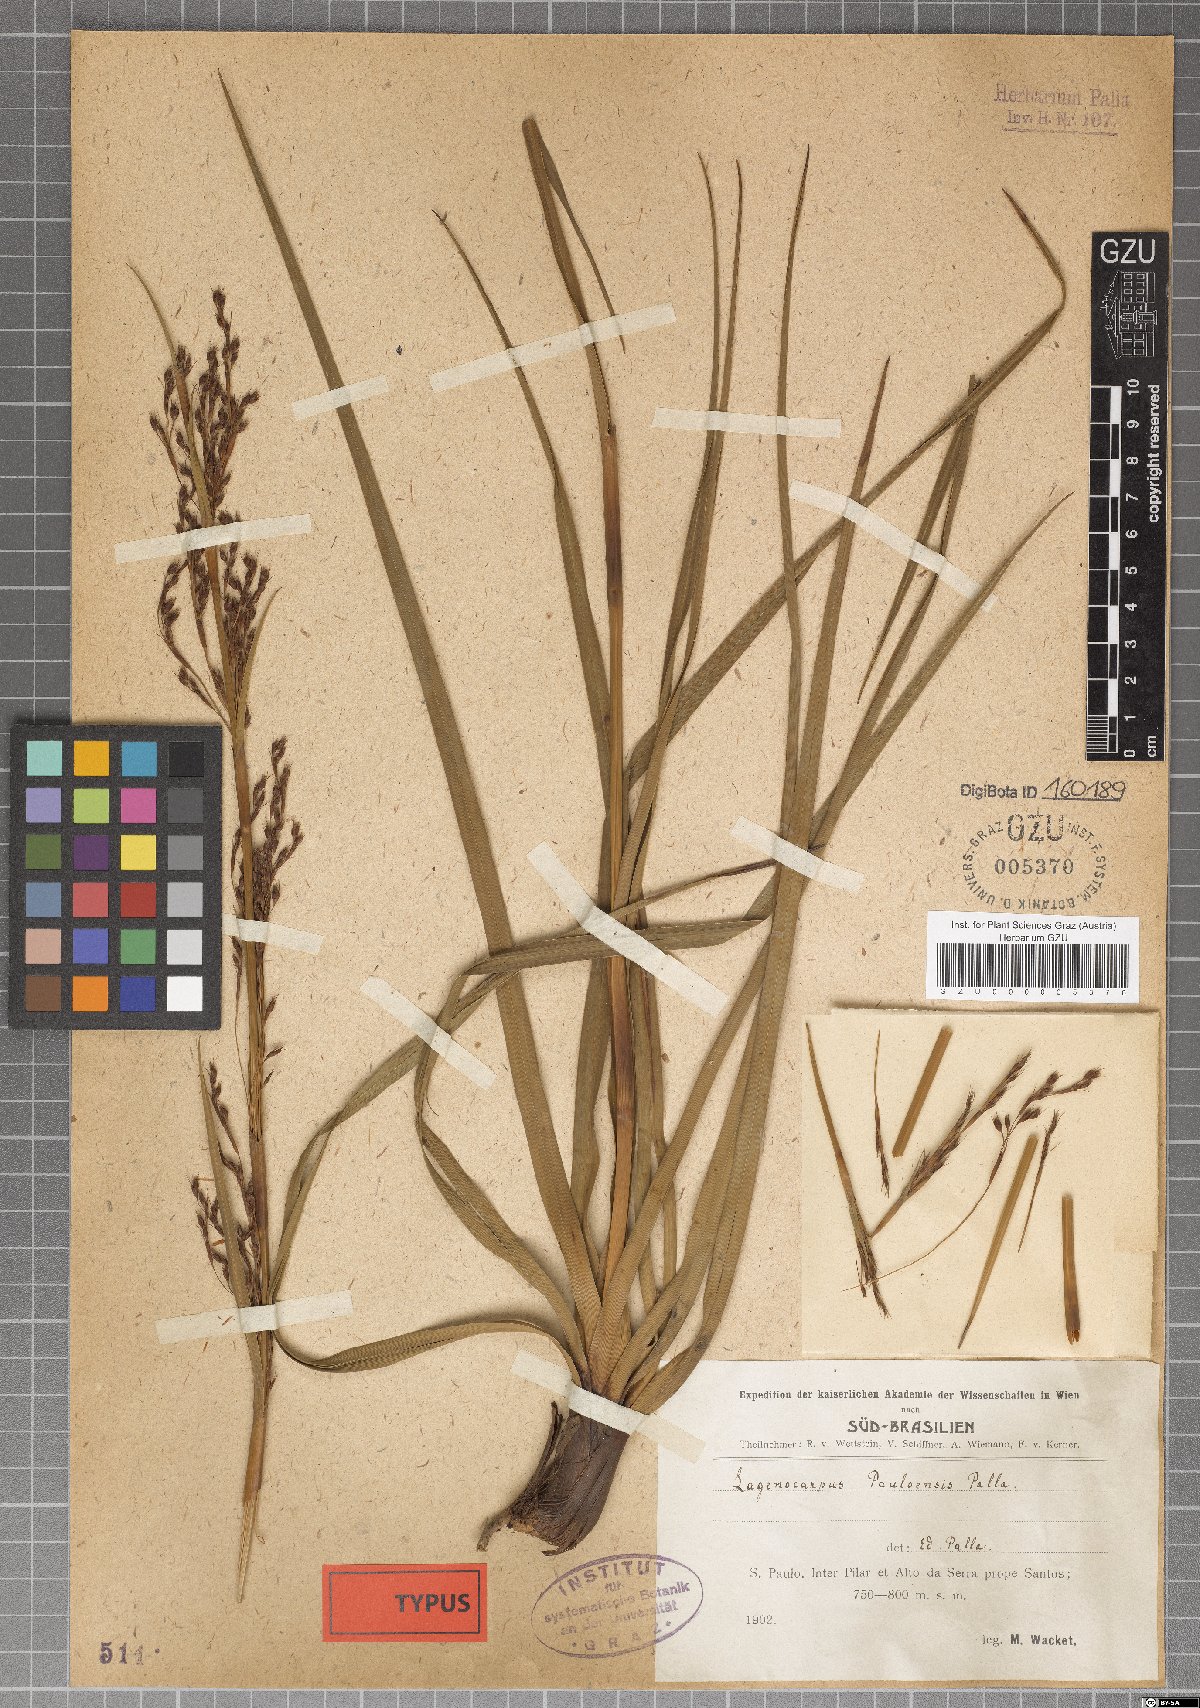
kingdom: Plantae
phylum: Tracheophyta
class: Liliopsida
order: Poales
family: Cyperaceae
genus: Lagenocarpus
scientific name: Lagenocarpus rigidus
